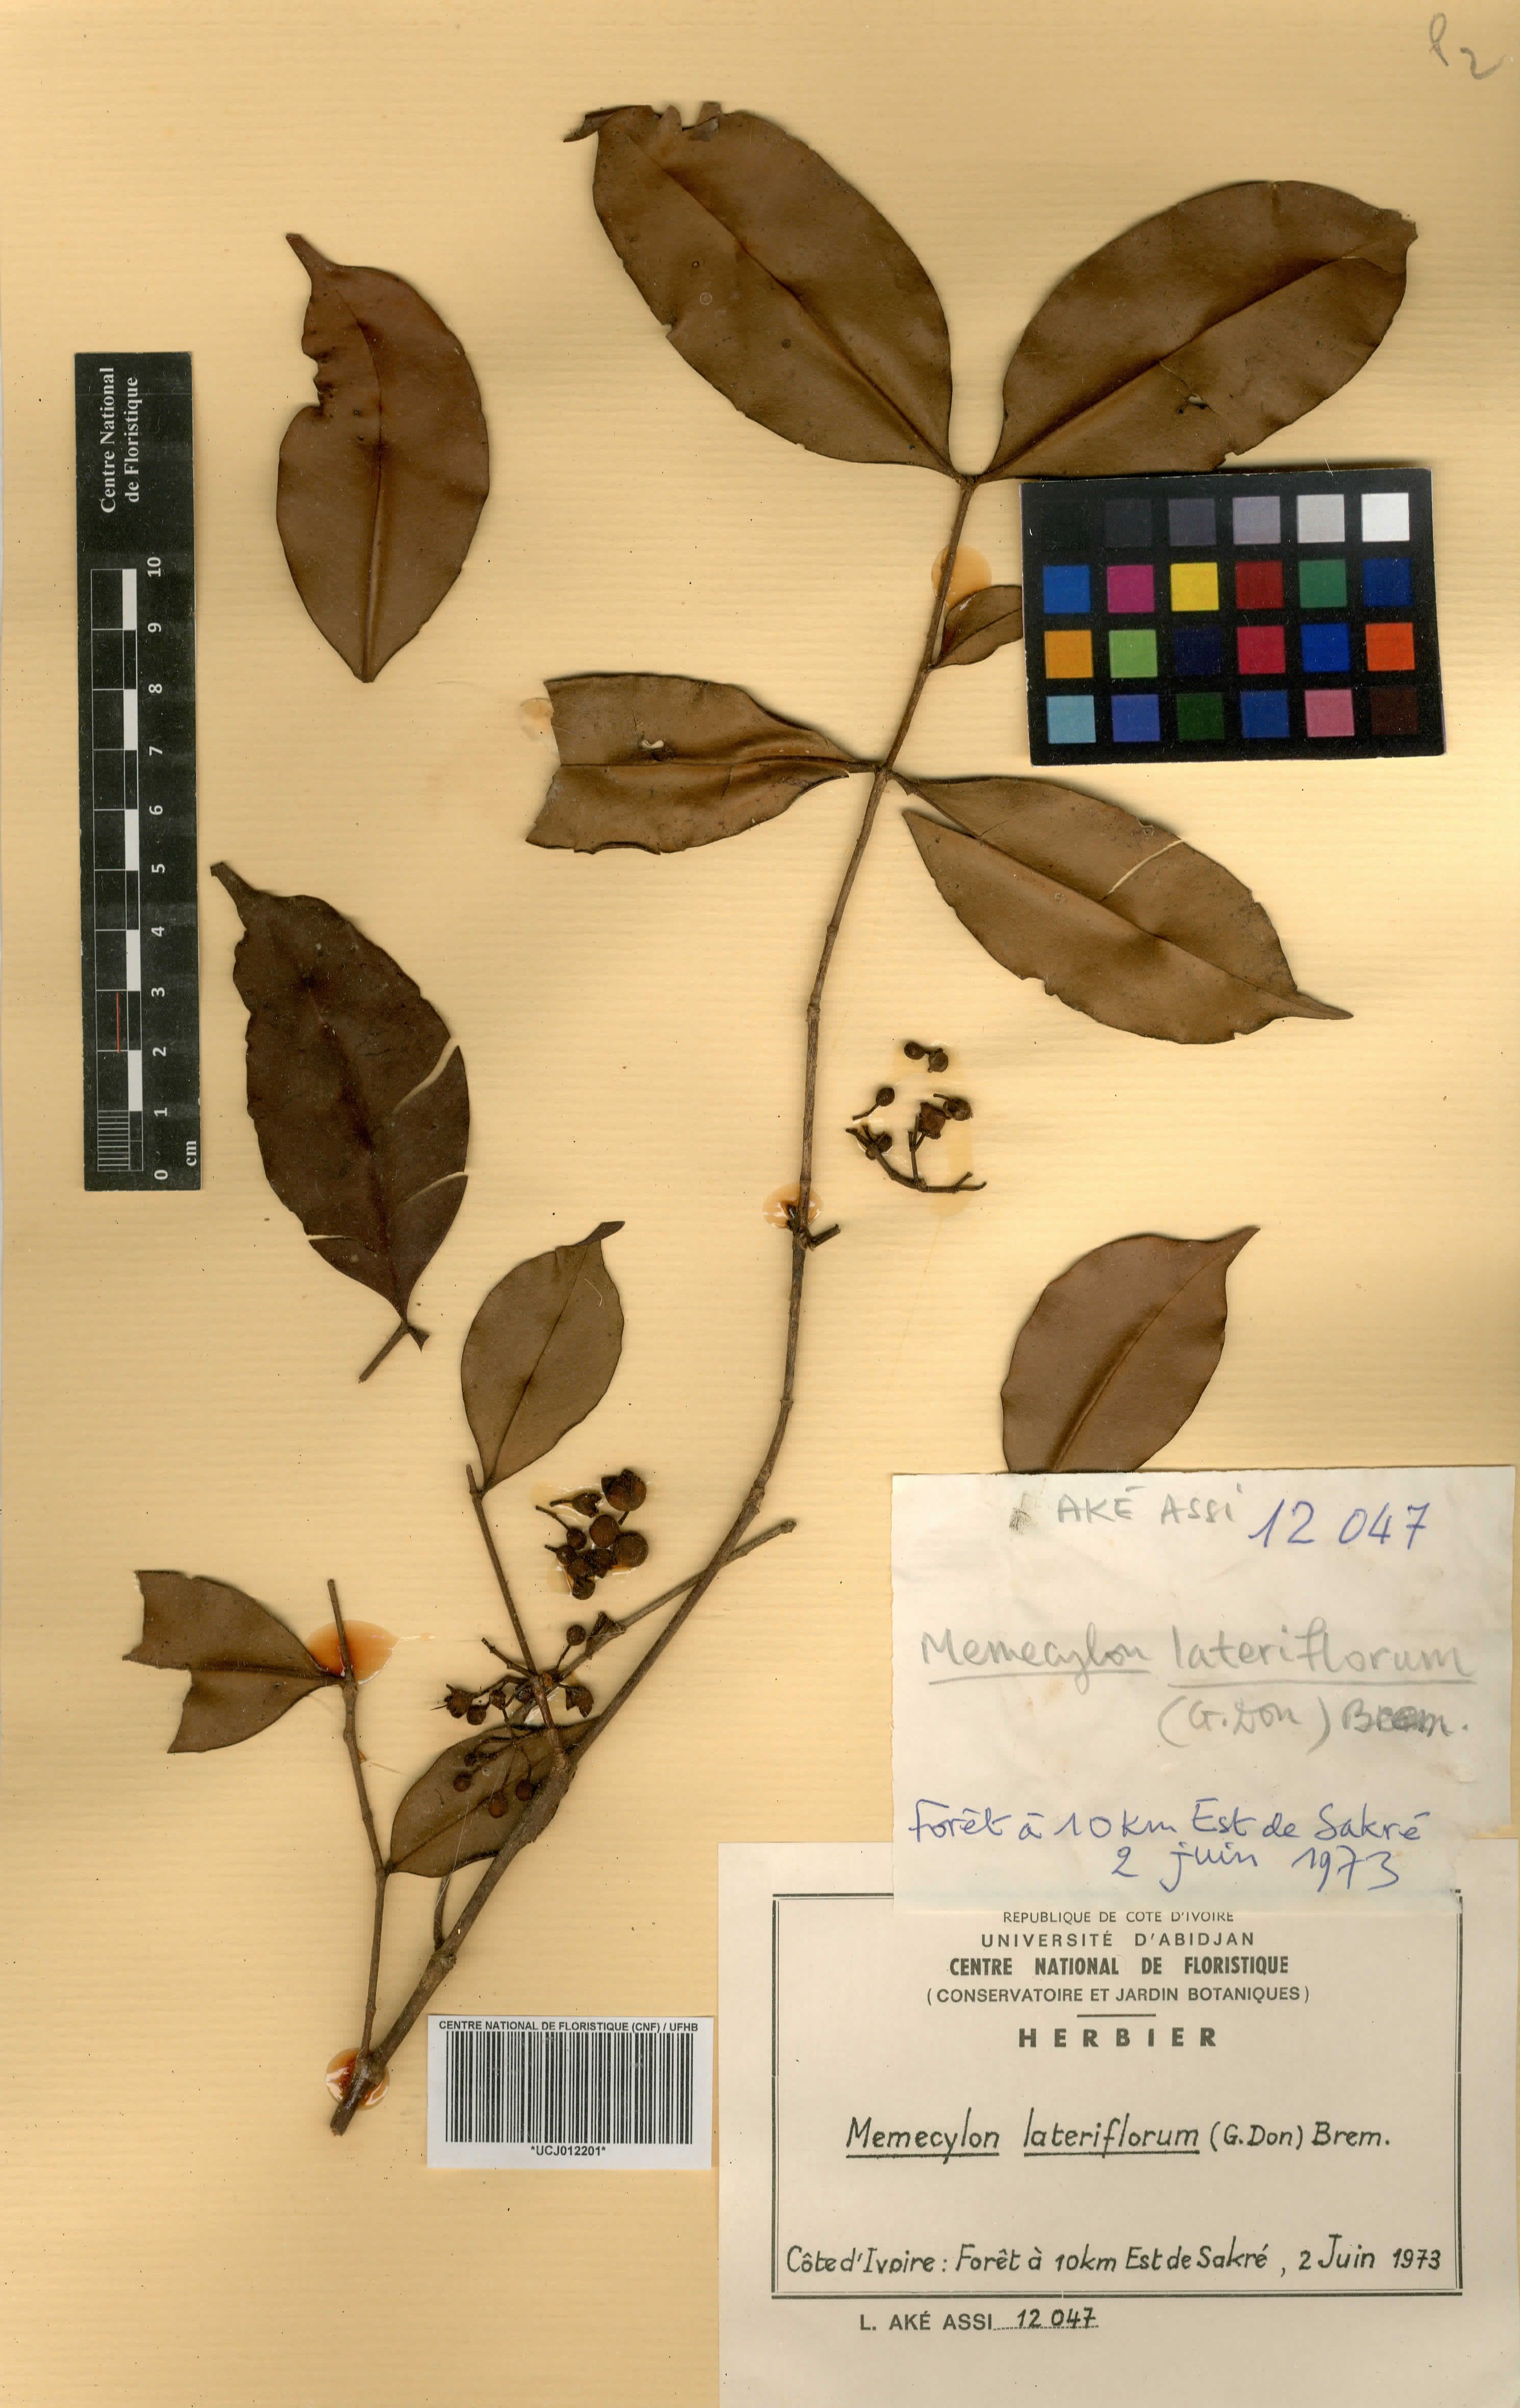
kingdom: Plantae
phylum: Tracheophyta
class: Magnoliopsida
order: Myrtales
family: Melastomataceae
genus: Memecylon
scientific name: Memecylon lateriflorum
